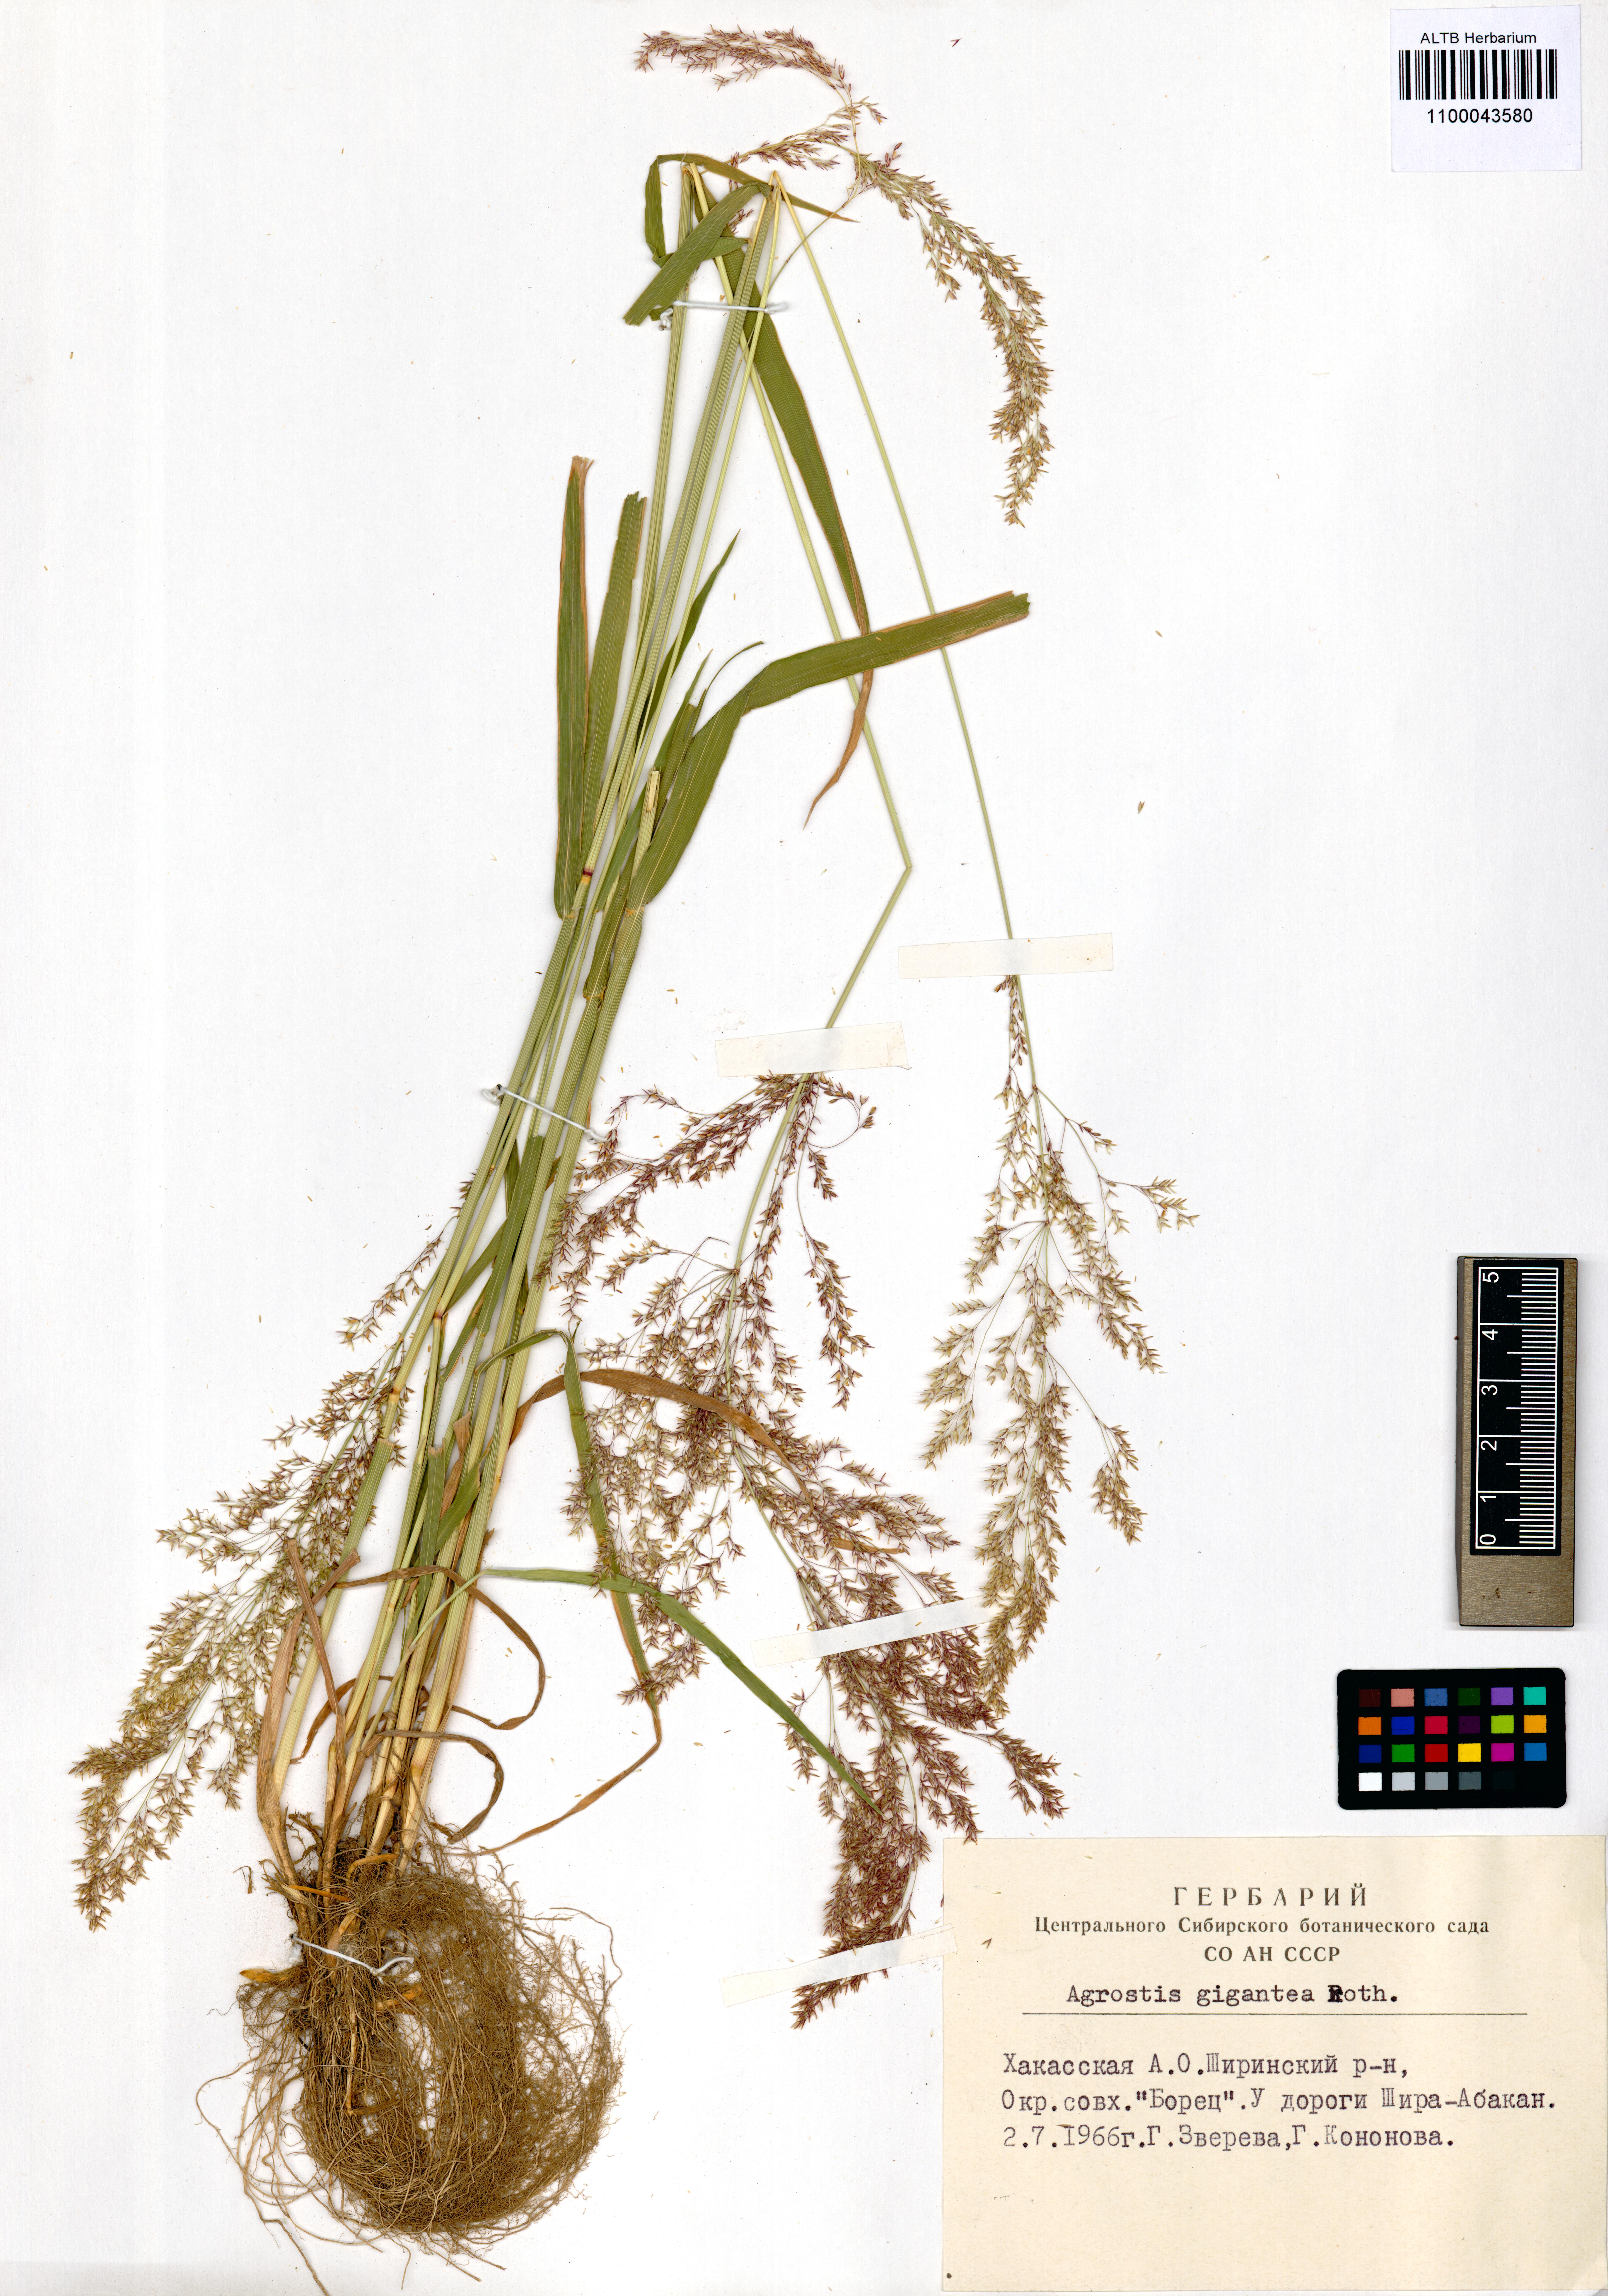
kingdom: Plantae
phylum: Tracheophyta
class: Liliopsida
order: Poales
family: Poaceae
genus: Agrostis
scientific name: Agrostis gigantea
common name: Black bent
